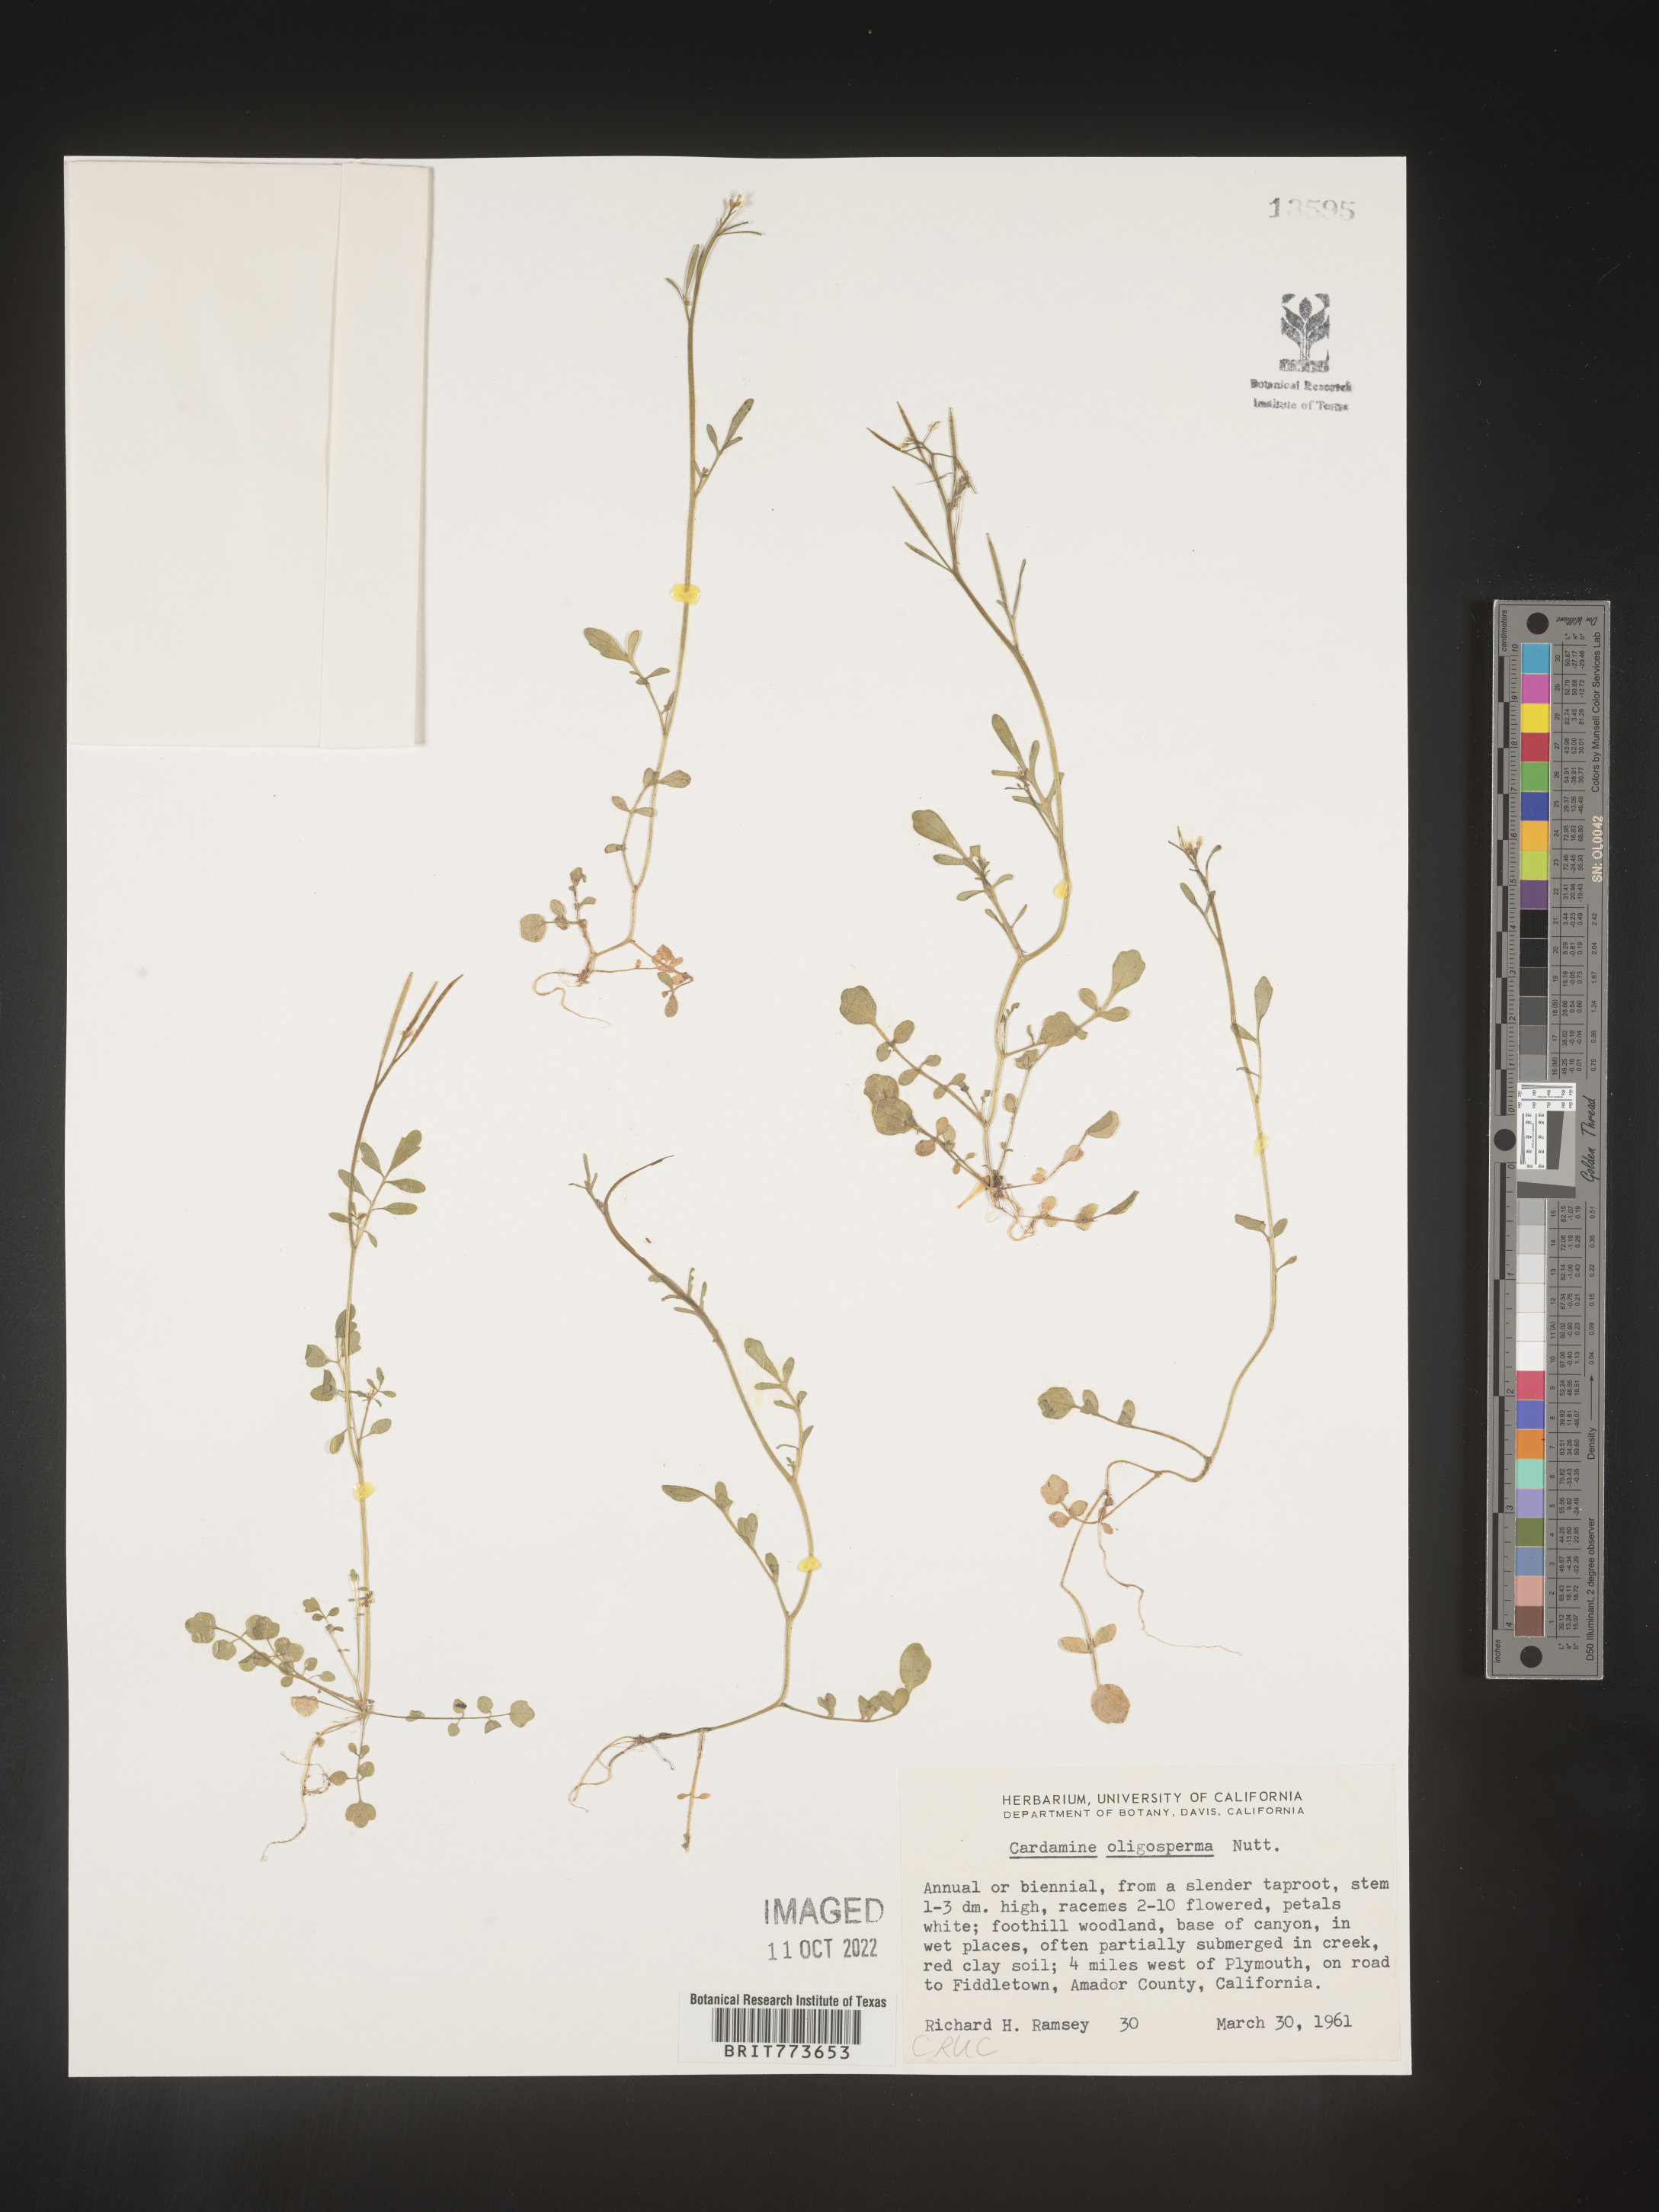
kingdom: Plantae
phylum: Tracheophyta
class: Magnoliopsida
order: Brassicales
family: Brassicaceae
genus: Cardamine
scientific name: Cardamine
